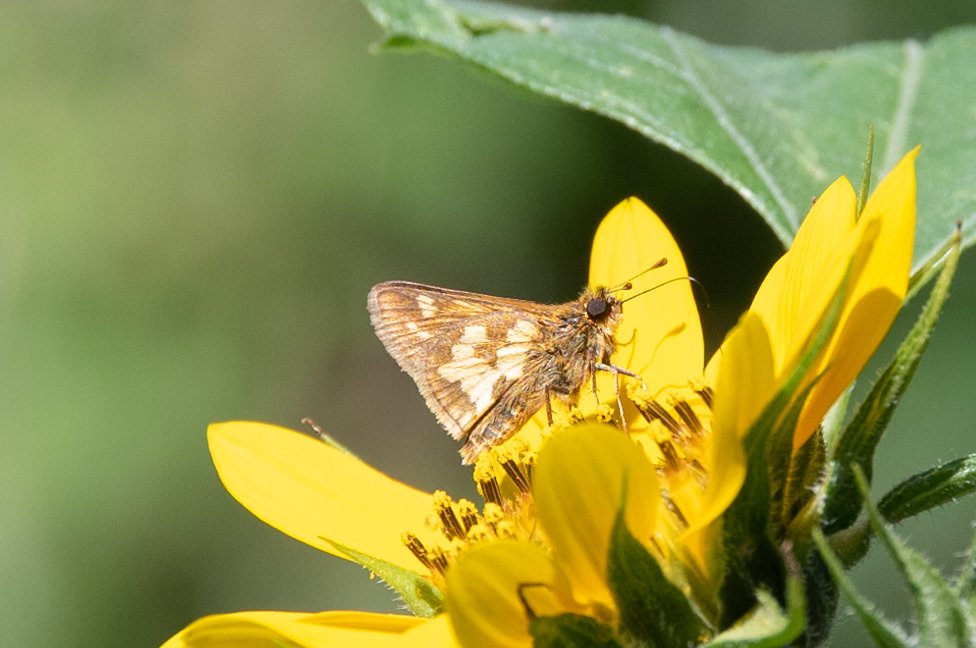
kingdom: Animalia
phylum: Arthropoda
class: Insecta
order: Lepidoptera
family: Hesperiidae
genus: Polites
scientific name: Polites coras
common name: Peck's Skipper
